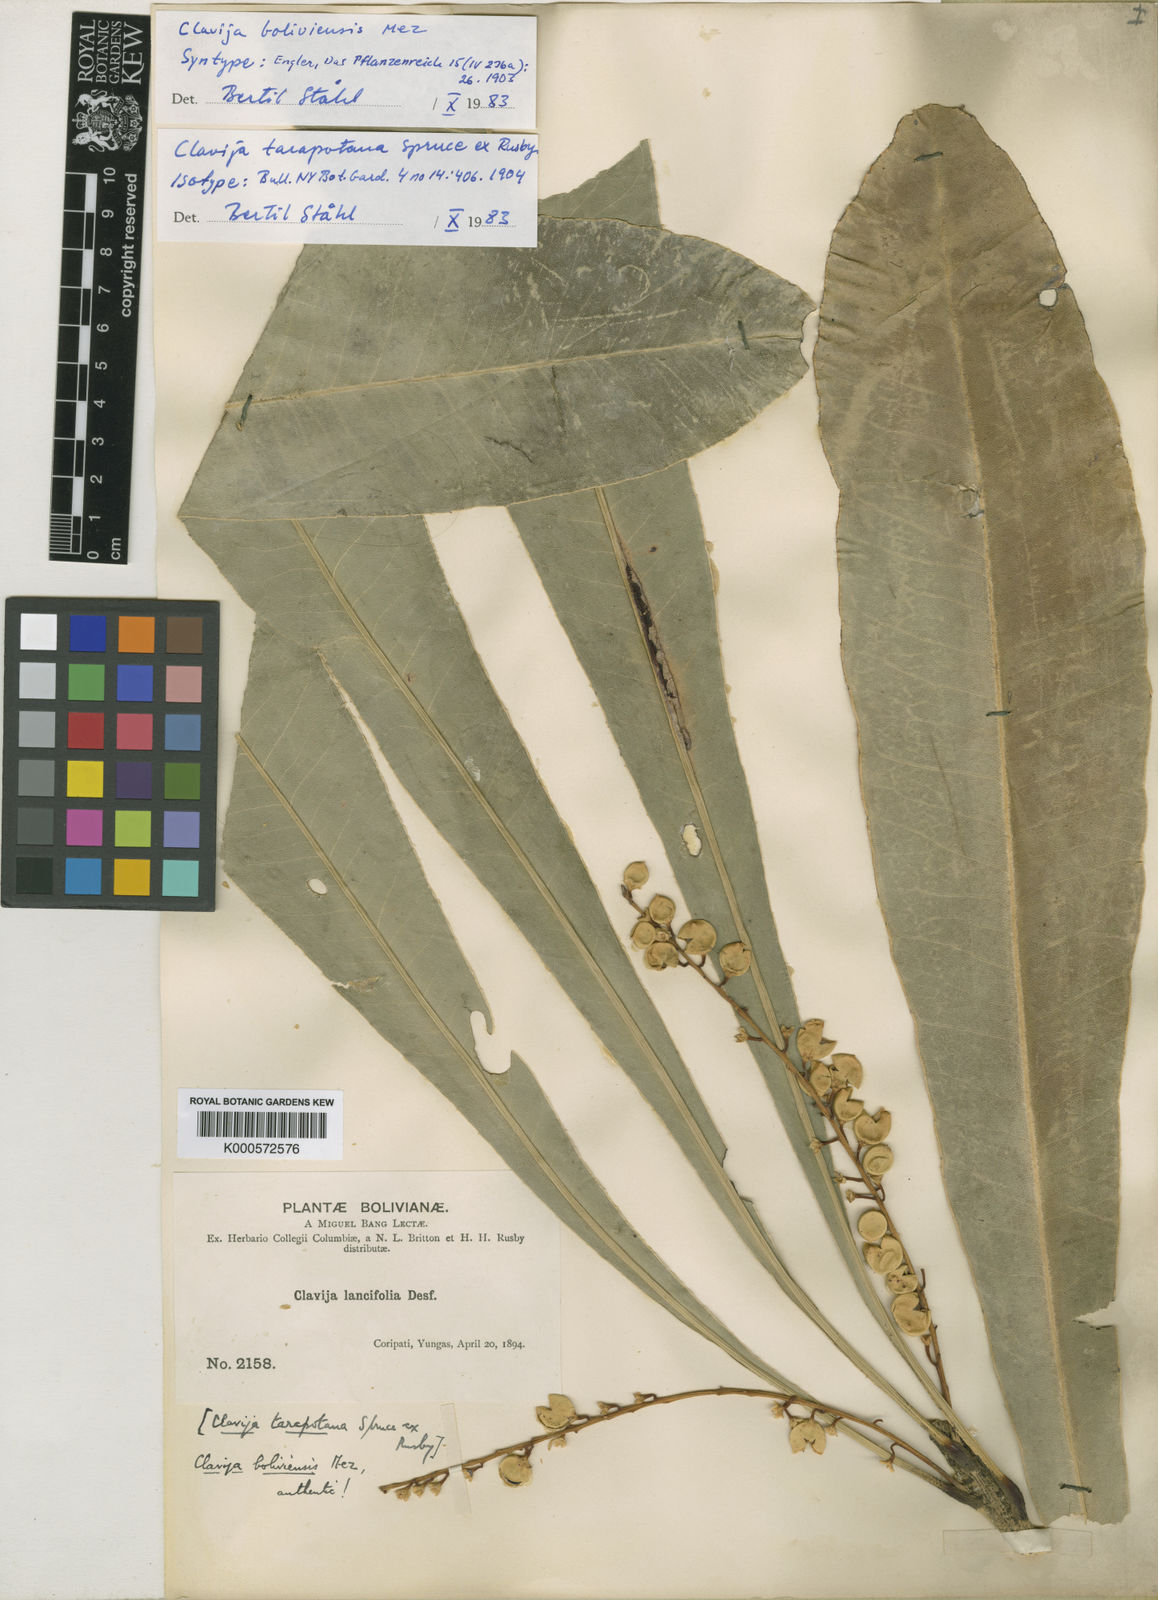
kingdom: Plantae
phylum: Tracheophyta
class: Magnoliopsida
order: Ericales
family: Primulaceae
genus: Clavija
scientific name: Clavija
